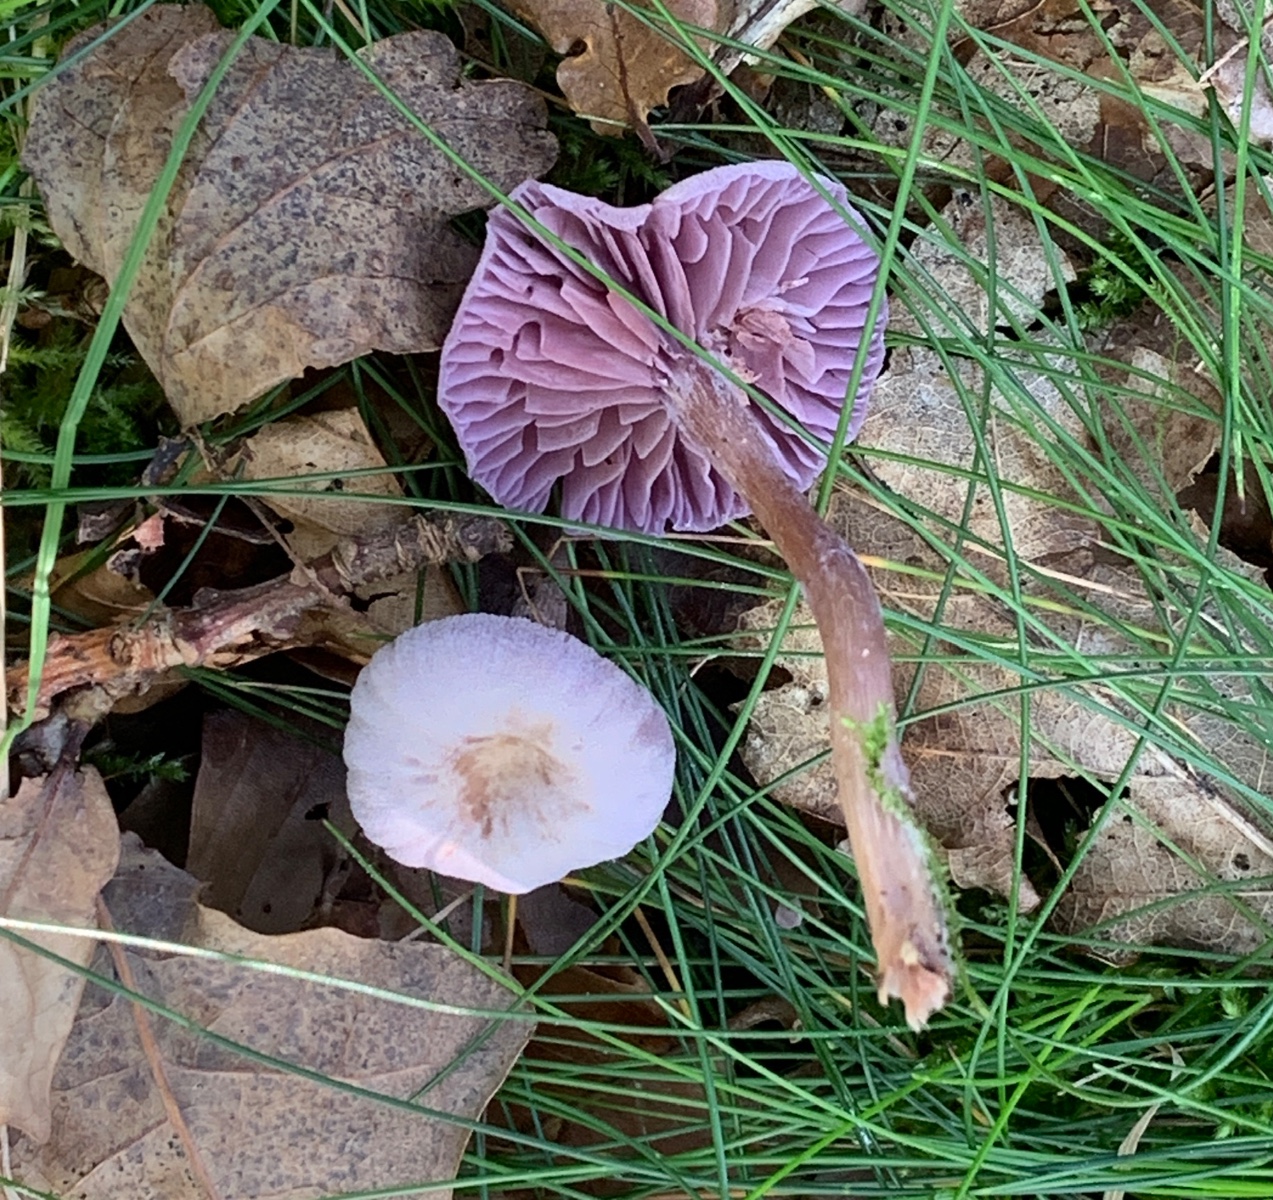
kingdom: Fungi
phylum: Basidiomycota
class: Agaricomycetes
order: Agaricales
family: Hydnangiaceae
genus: Laccaria
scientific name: Laccaria amethystina
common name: violet ametysthat
